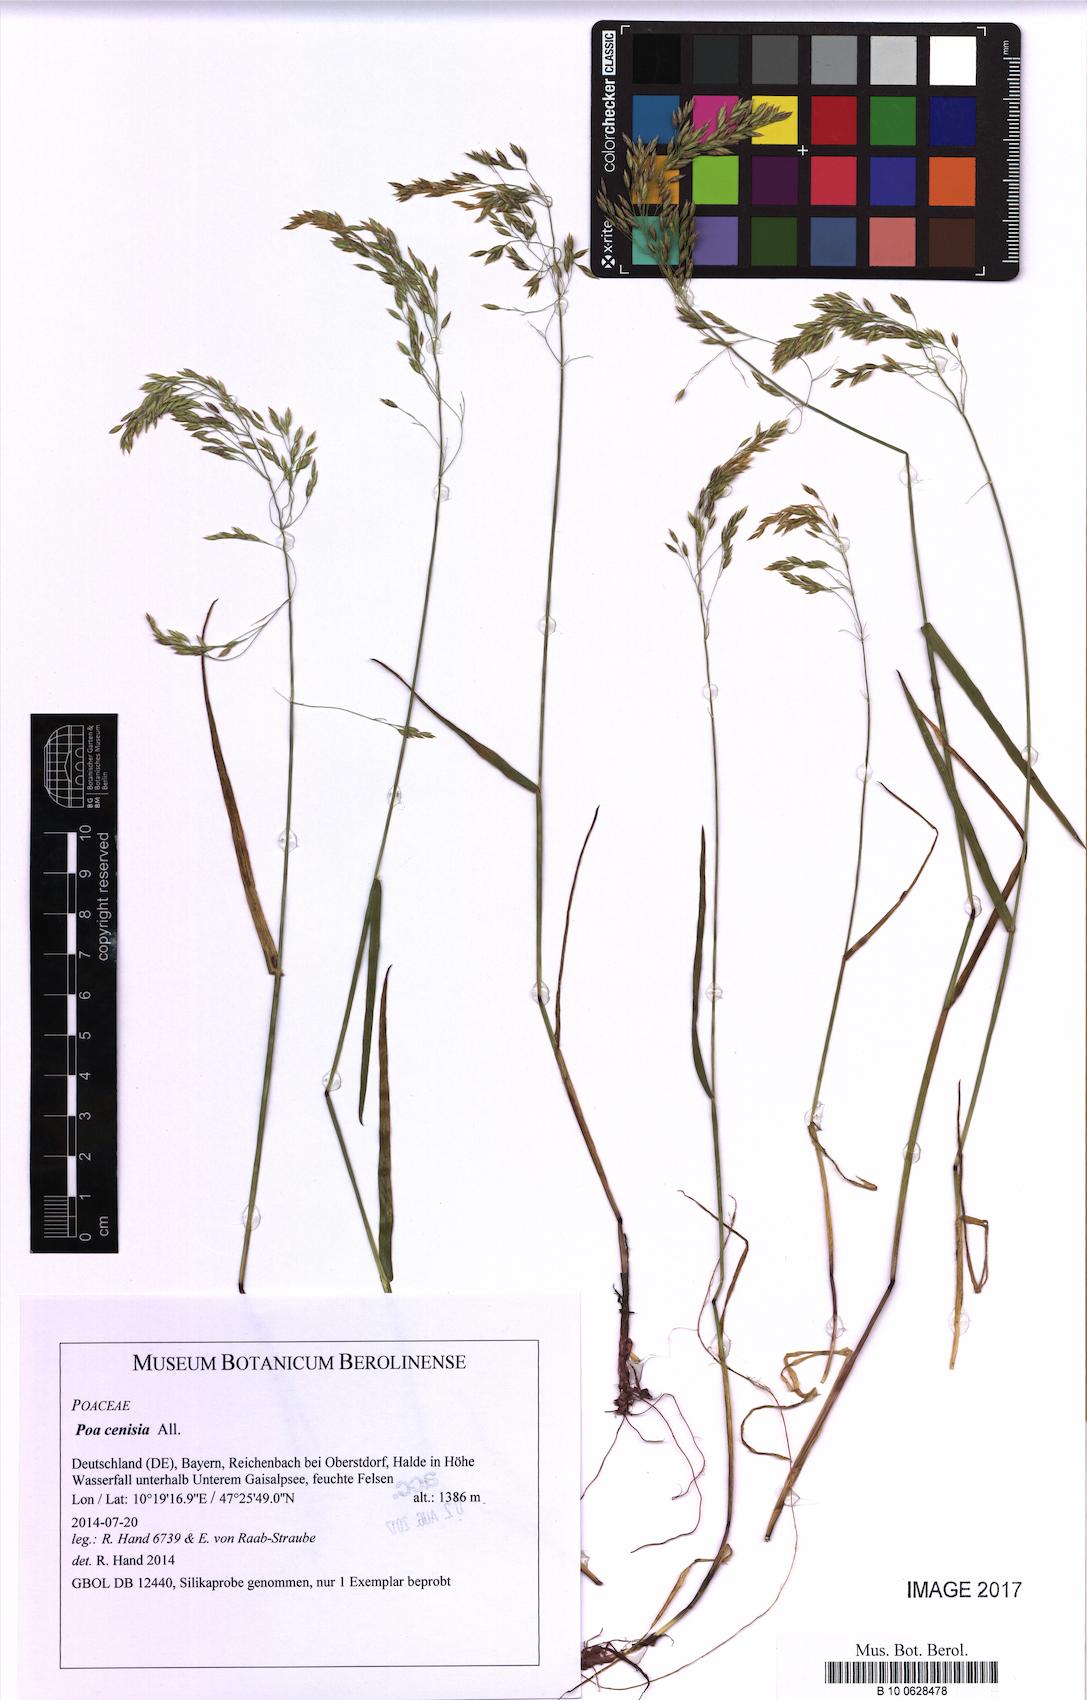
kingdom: Plantae
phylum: Tracheophyta
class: Liliopsida
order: Poales
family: Poaceae
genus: Poa
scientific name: Poa cenisia
